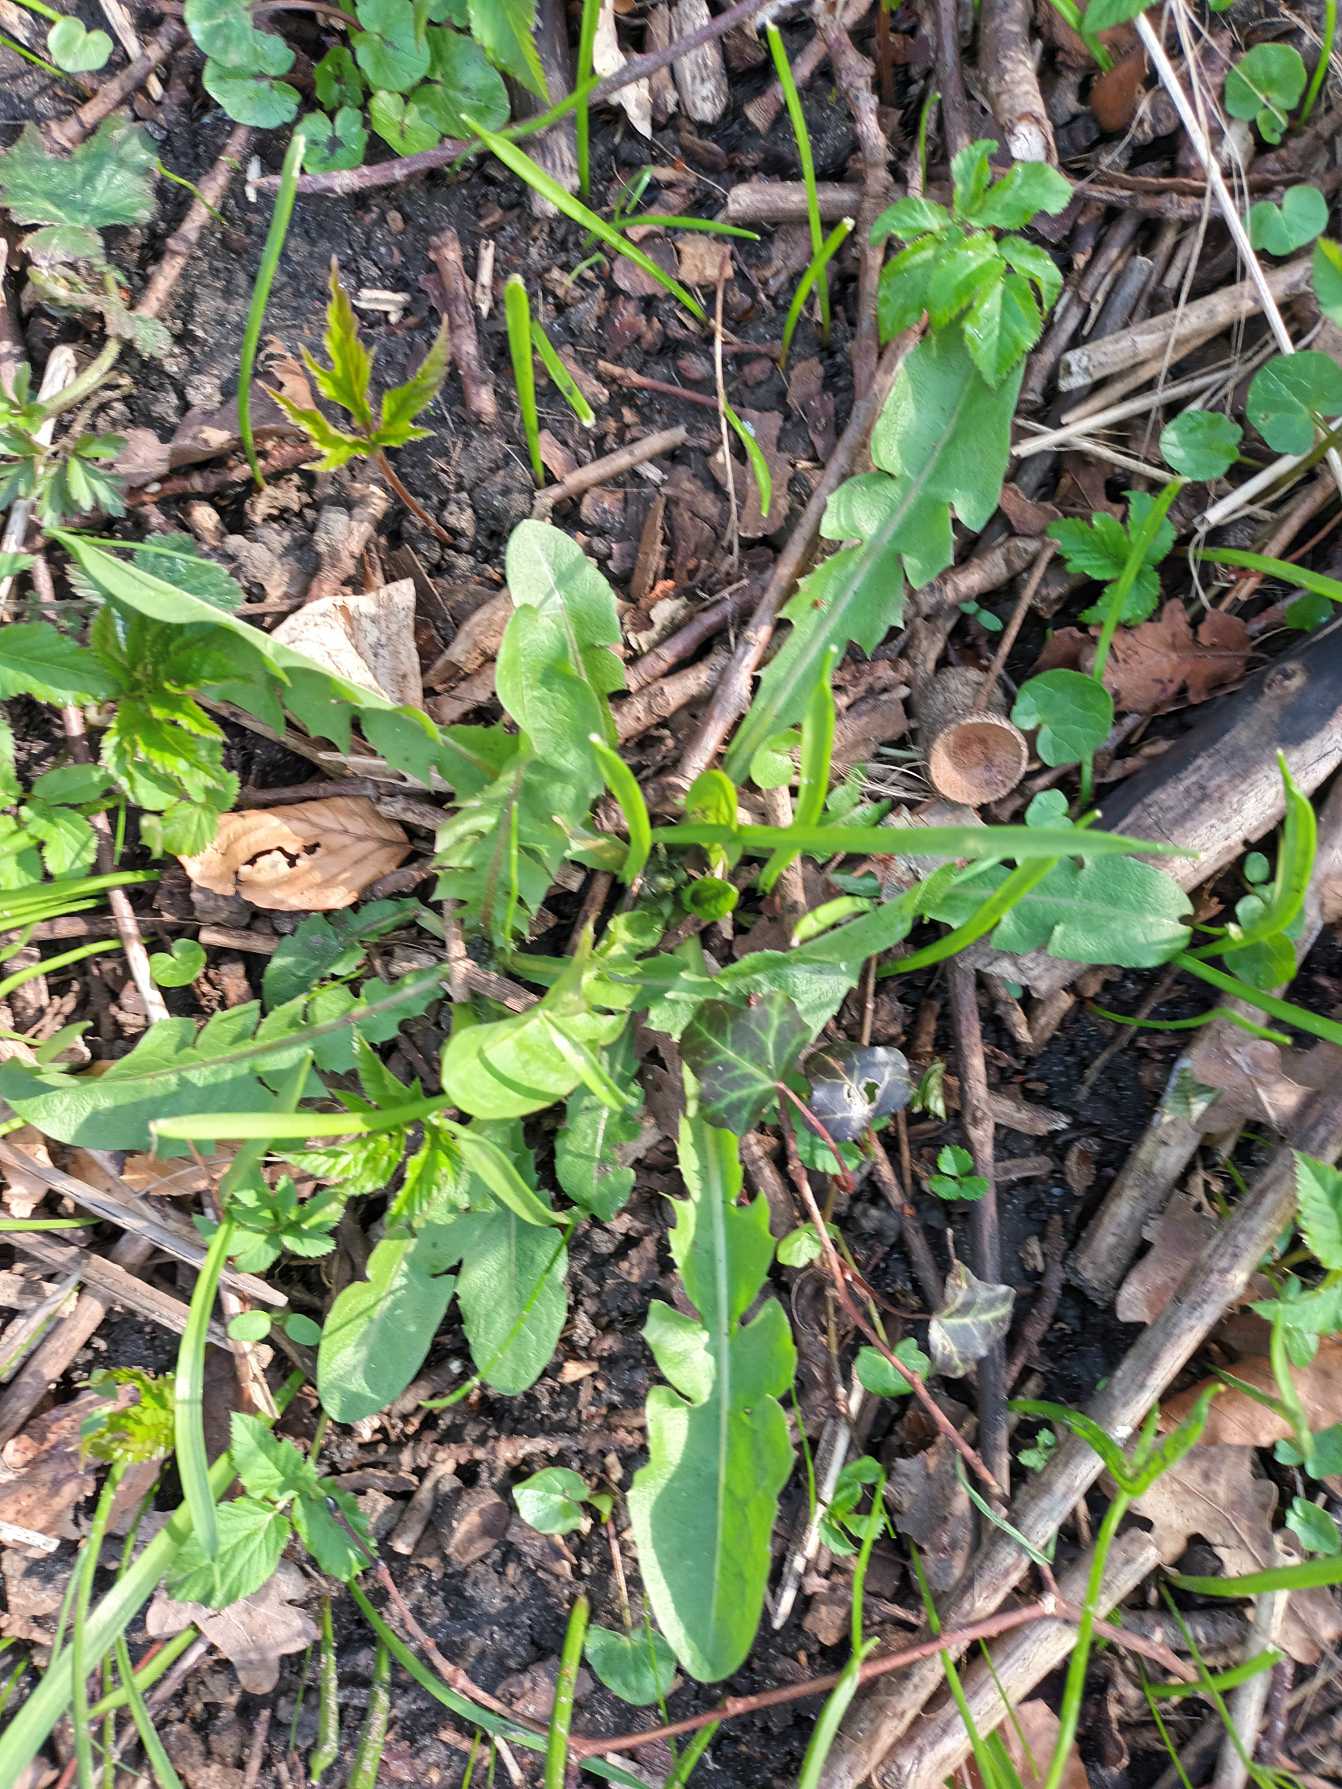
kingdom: Plantae
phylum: Tracheophyta
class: Magnoliopsida
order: Asterales
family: Asteraceae
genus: Taraxacum
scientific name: Taraxacum
